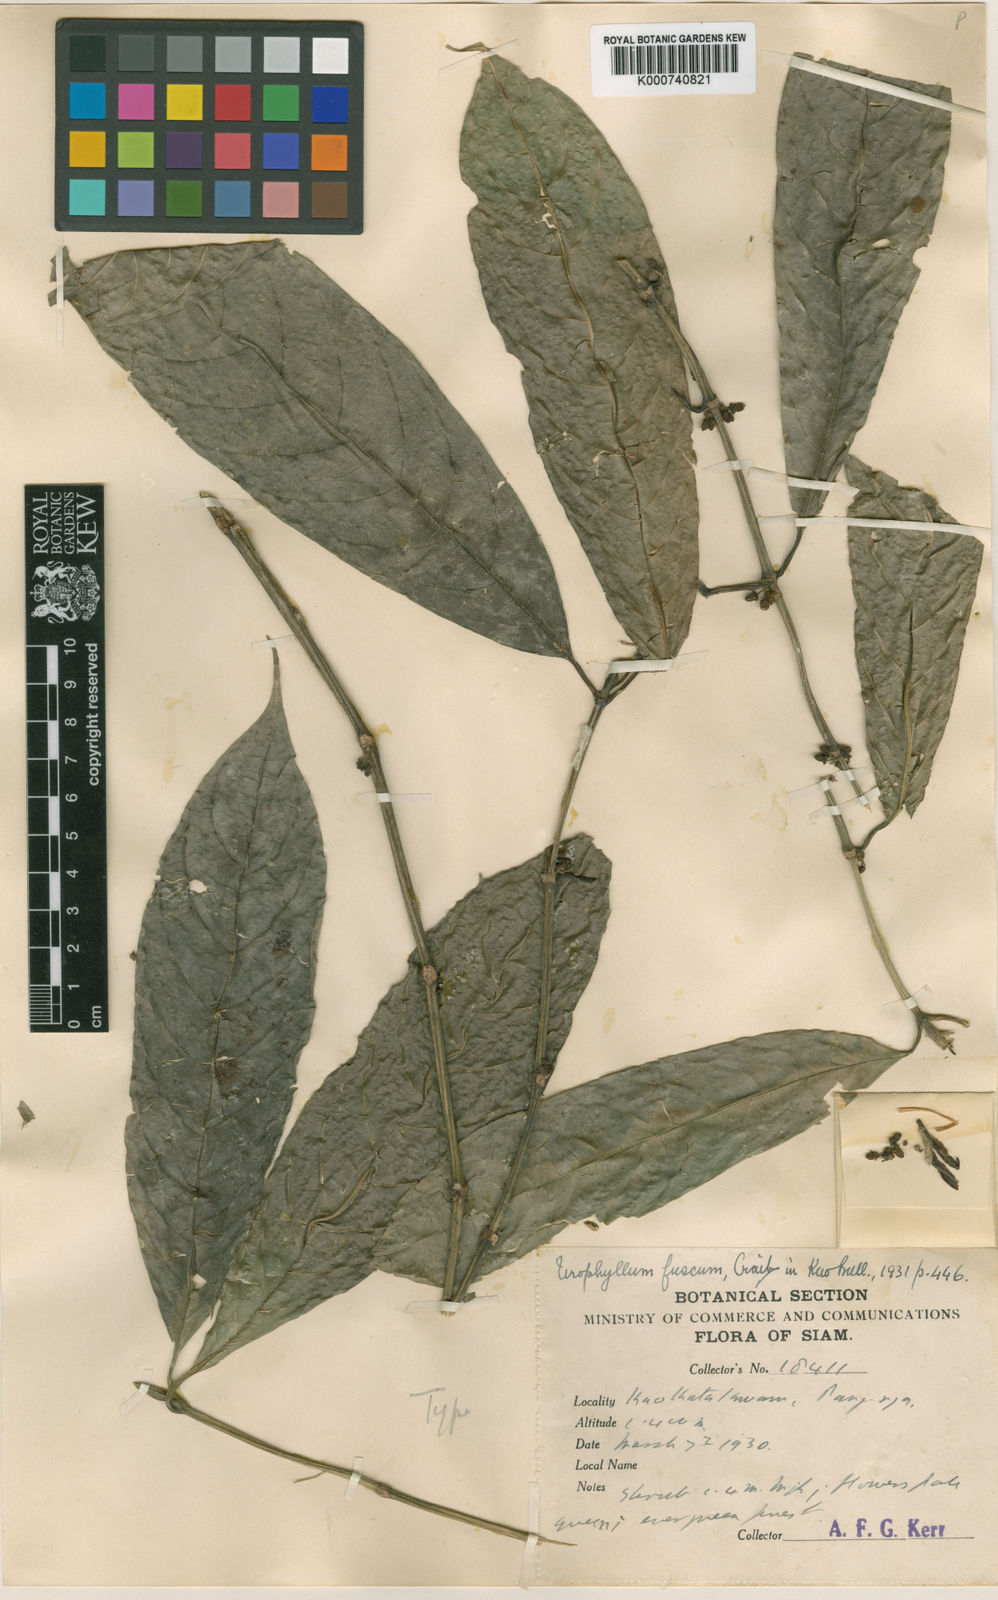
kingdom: Plantae
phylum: Tracheophyta
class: Magnoliopsida
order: Gentianales
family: Rubiaceae
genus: Urophyllum
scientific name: Urophyllum fuscum
